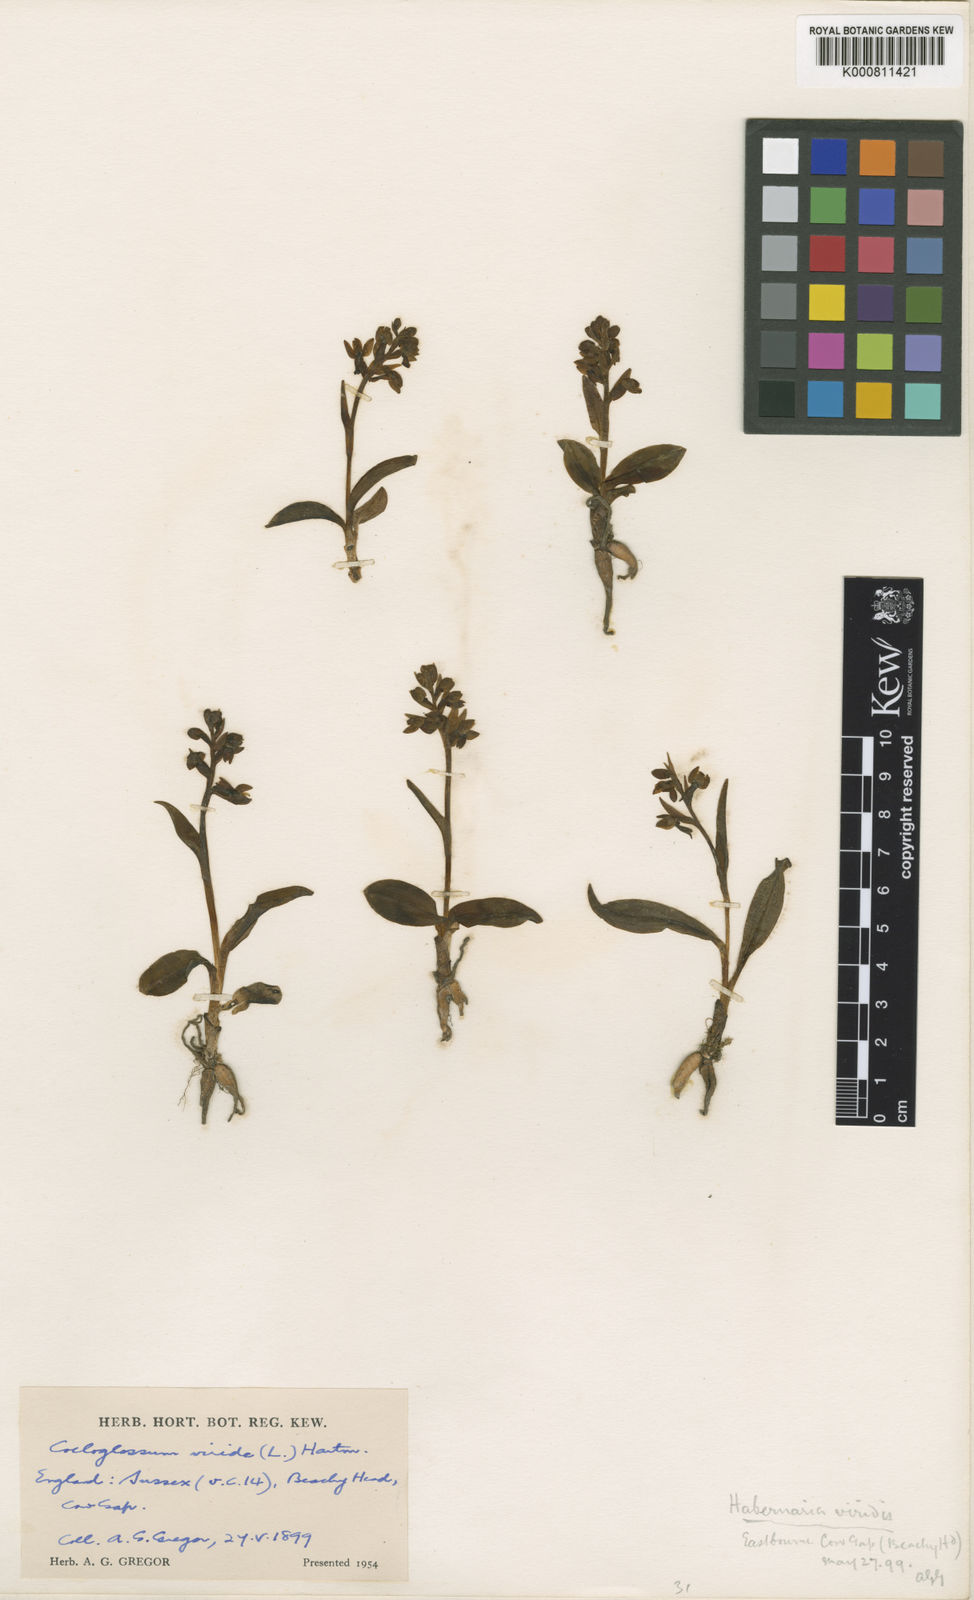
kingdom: Plantae
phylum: Tracheophyta
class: Liliopsida
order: Asparagales
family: Orchidaceae
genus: Dactylorhiza
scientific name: Dactylorhiza viridis
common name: Longbract frog orchid
